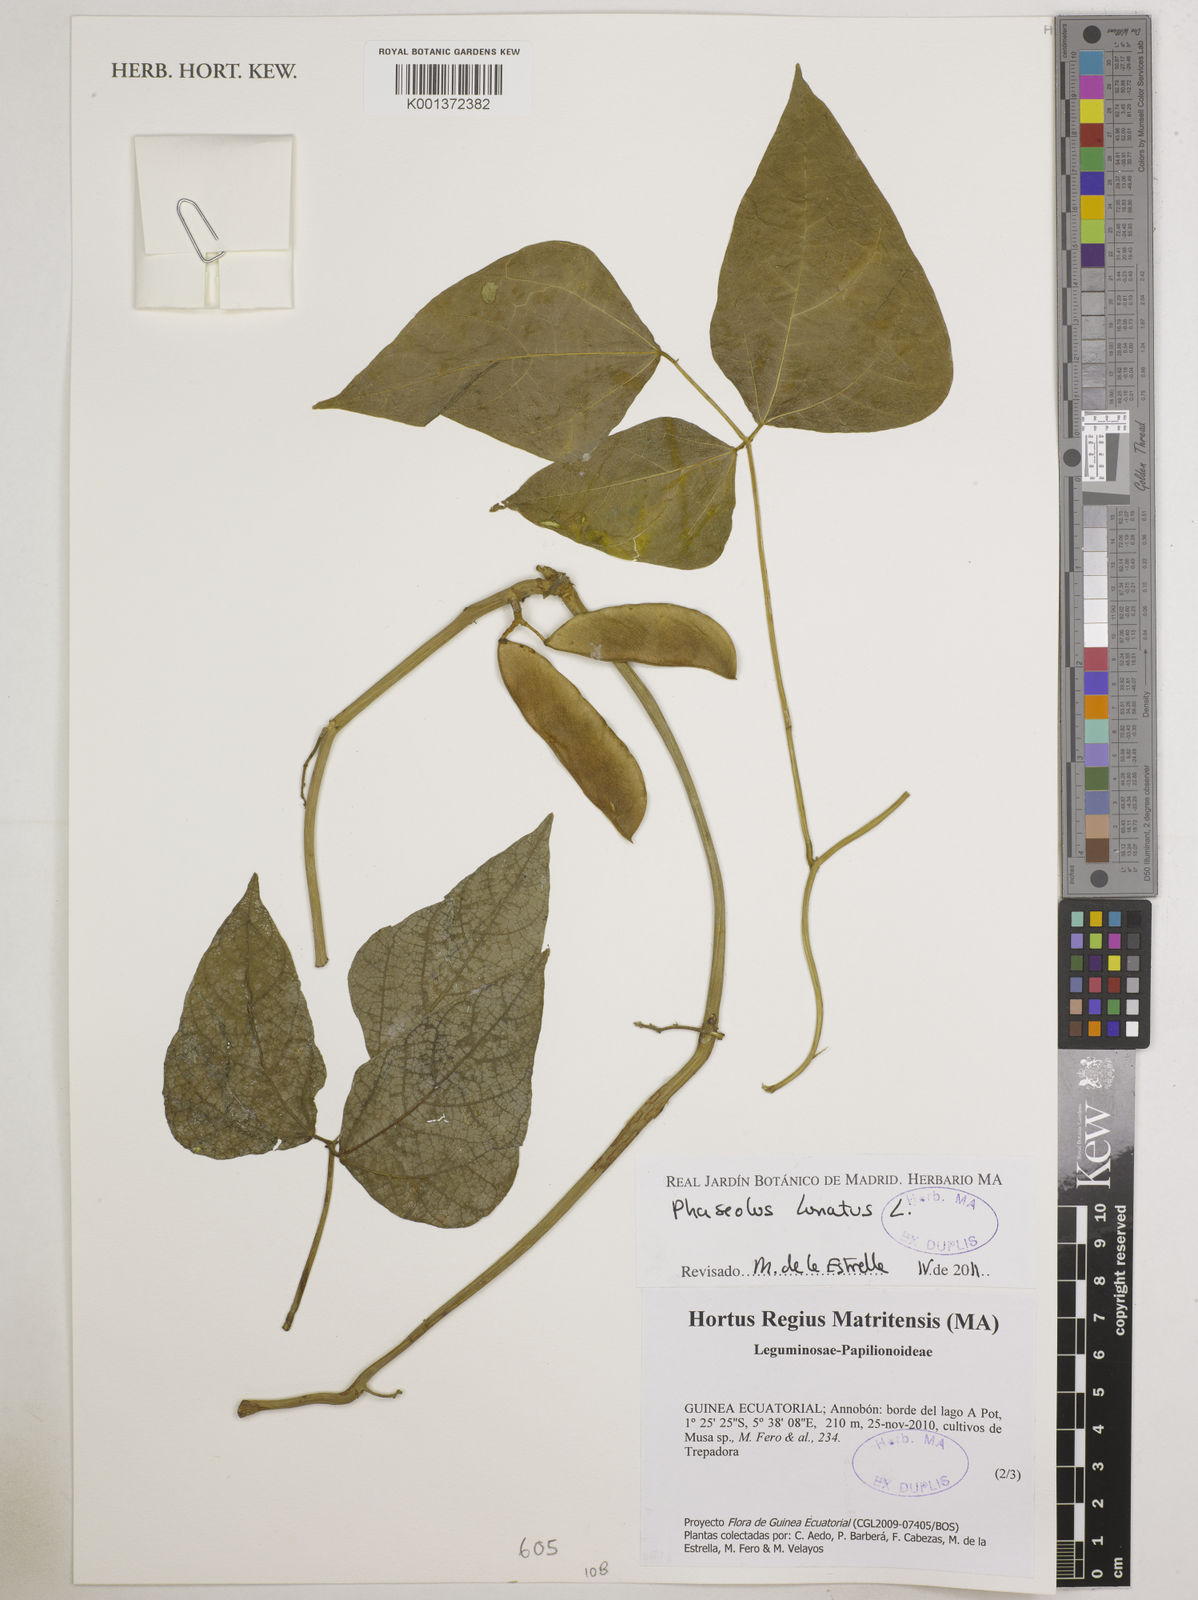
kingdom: Plantae
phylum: Tracheophyta
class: Magnoliopsida
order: Fabales
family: Fabaceae
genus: Phaseolus
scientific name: Phaseolus lunatus
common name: Sieva bean
